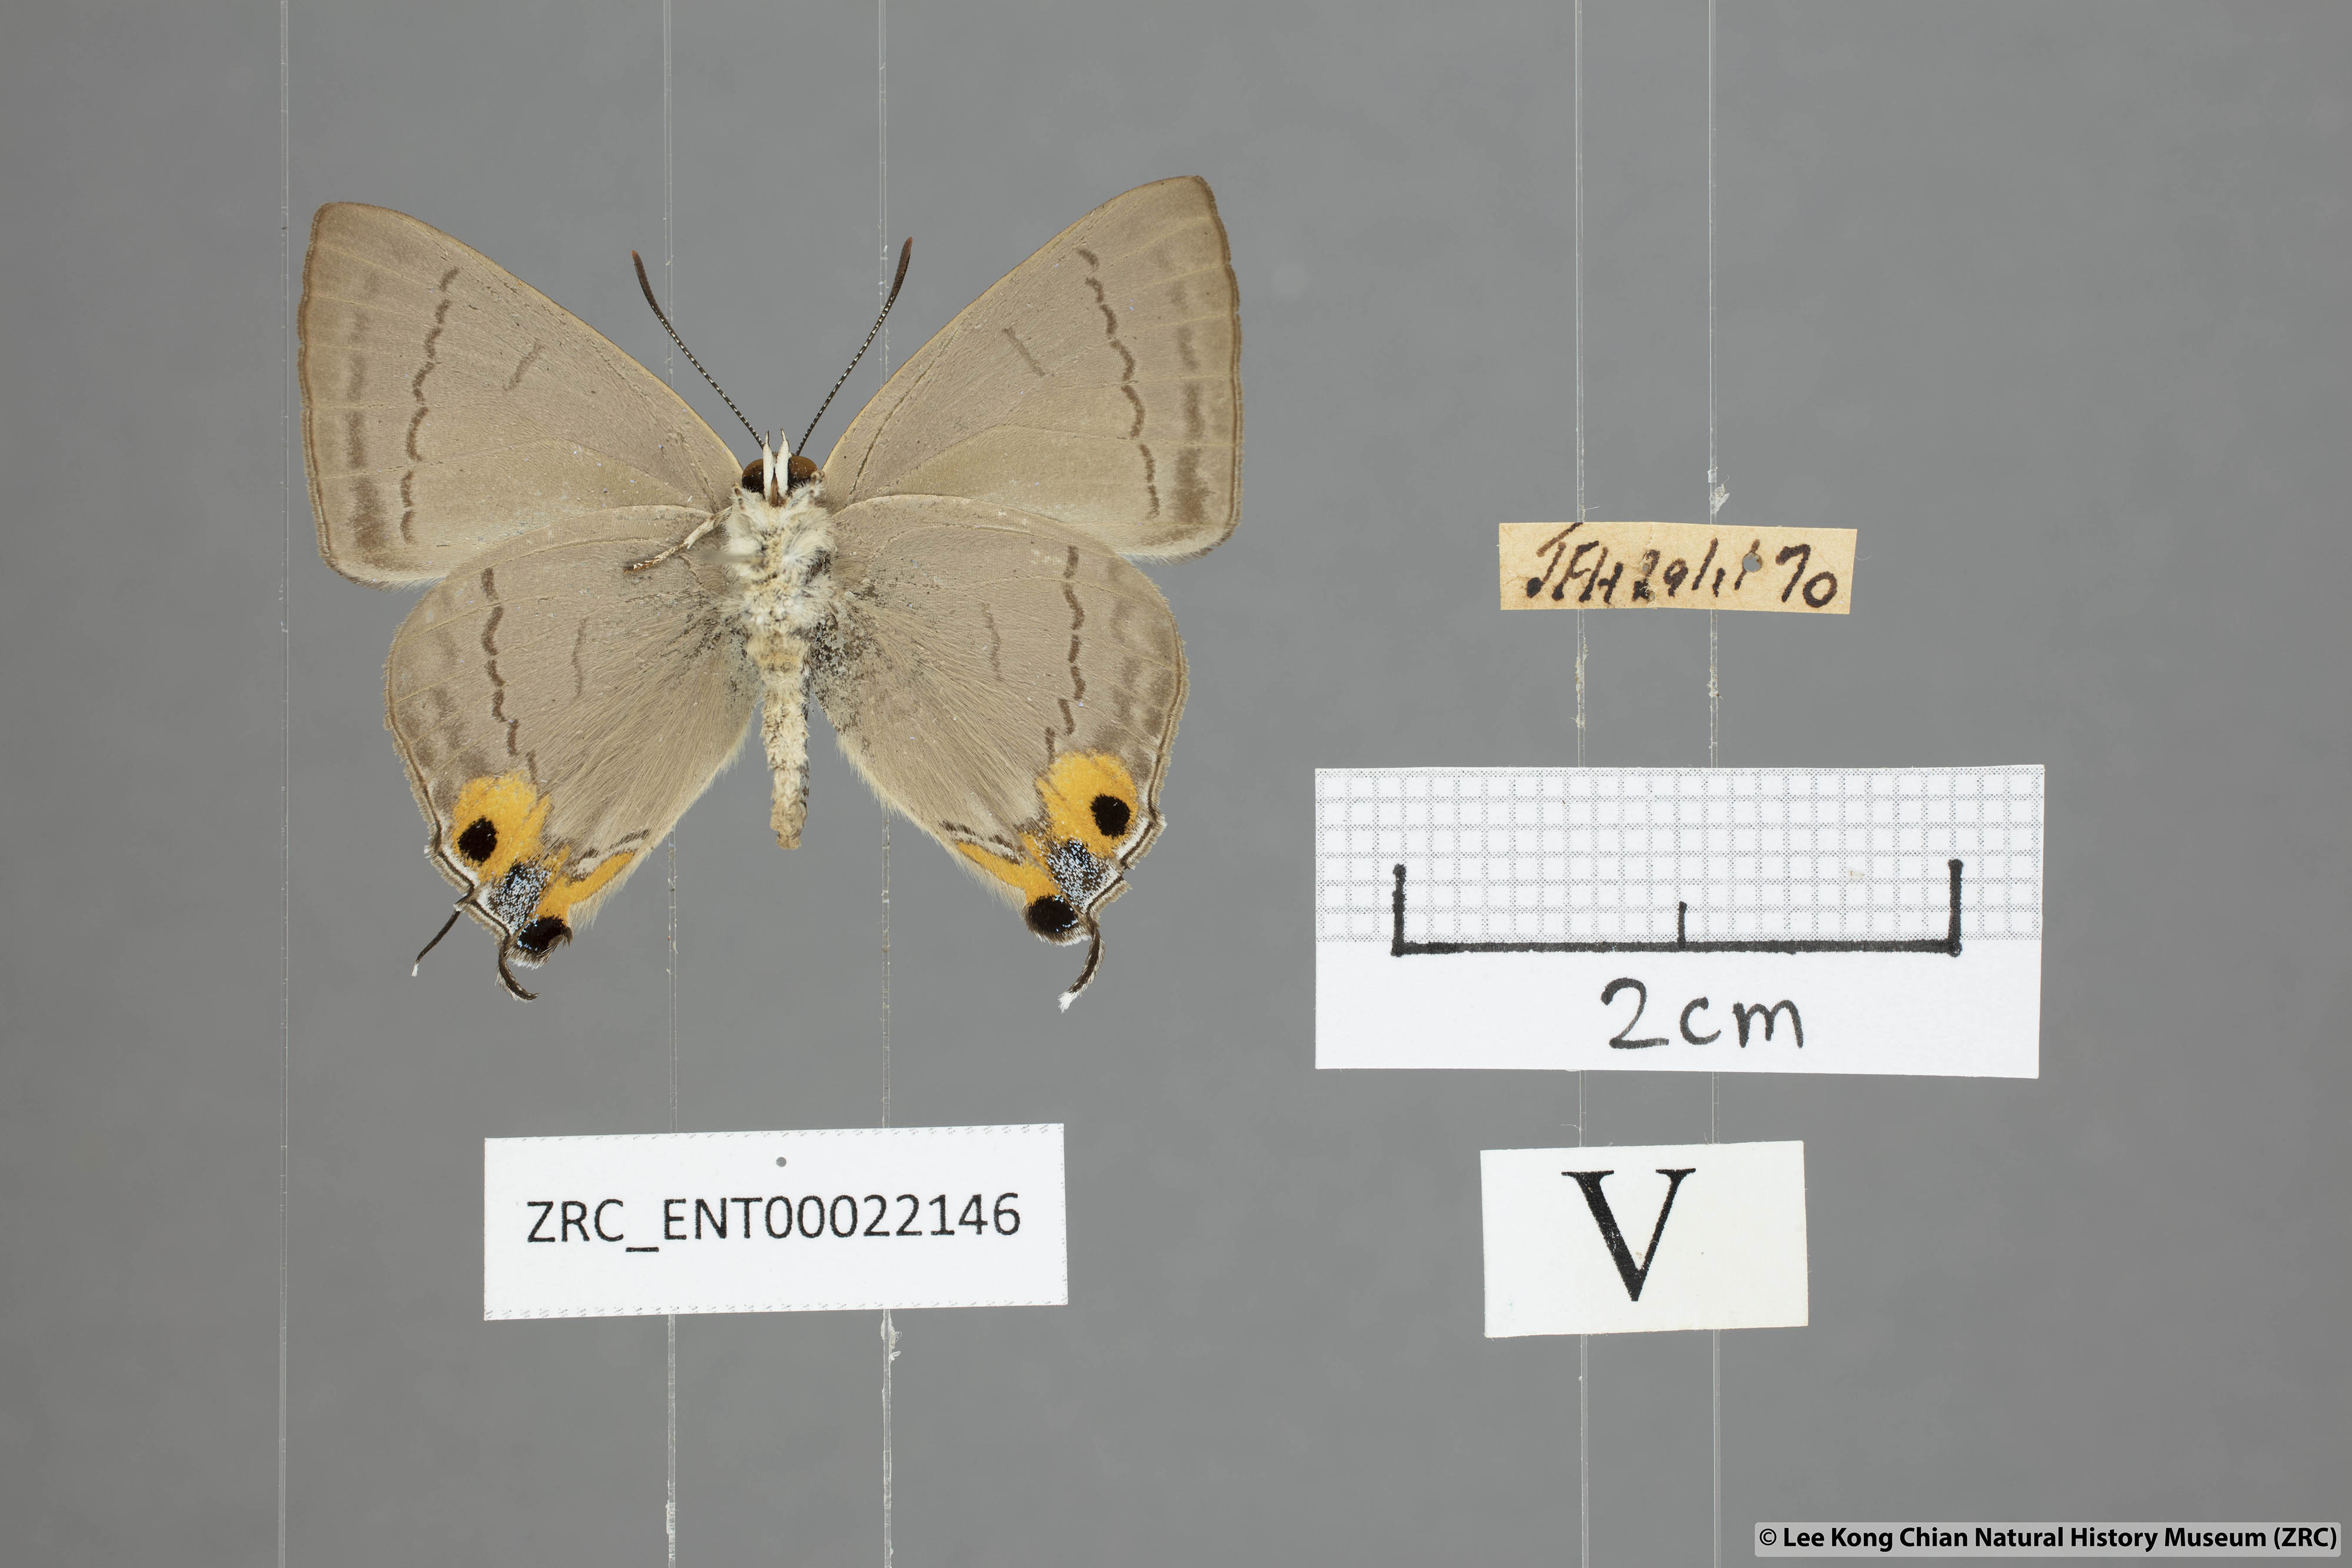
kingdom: Animalia
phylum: Arthropoda
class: Insecta
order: Lepidoptera
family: Lycaenidae
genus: Tajuria
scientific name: Tajuria albiplaga
